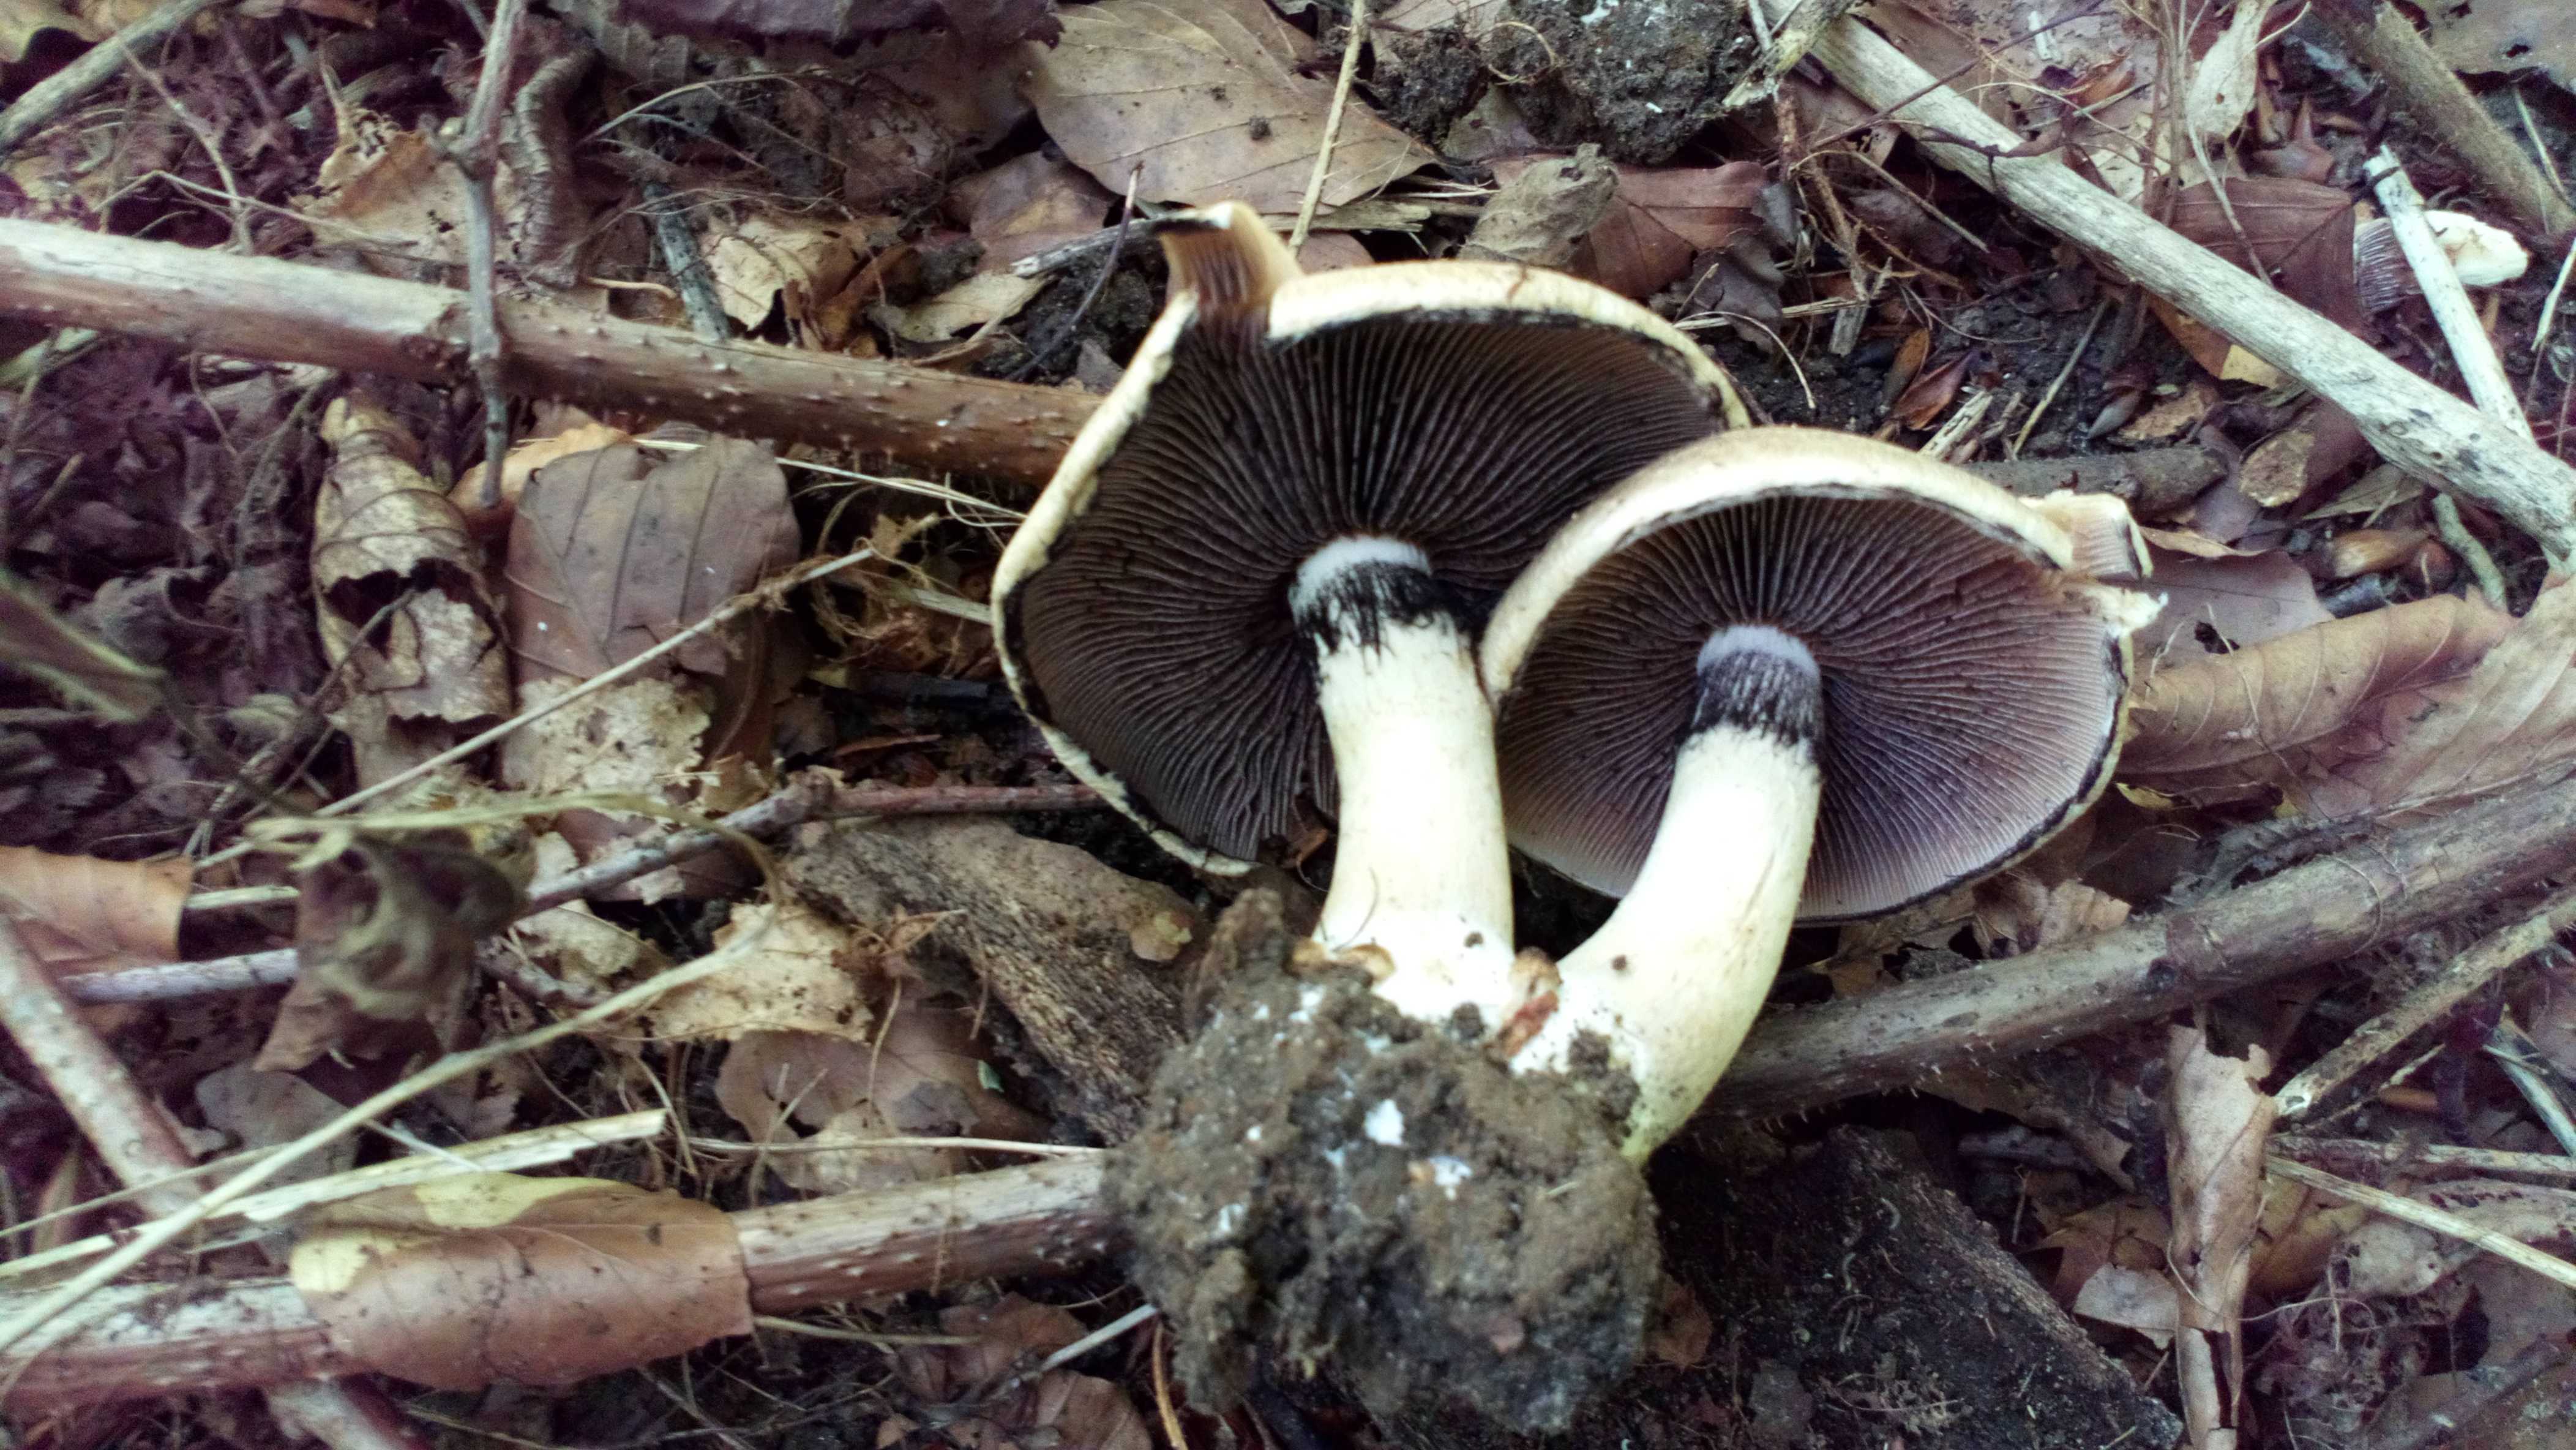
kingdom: Fungi
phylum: Basidiomycota
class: Agaricomycetes
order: Agaricales
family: Psathyrellaceae
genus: Lacrymaria
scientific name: Lacrymaria lacrymabunda
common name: grædende mørkhat
